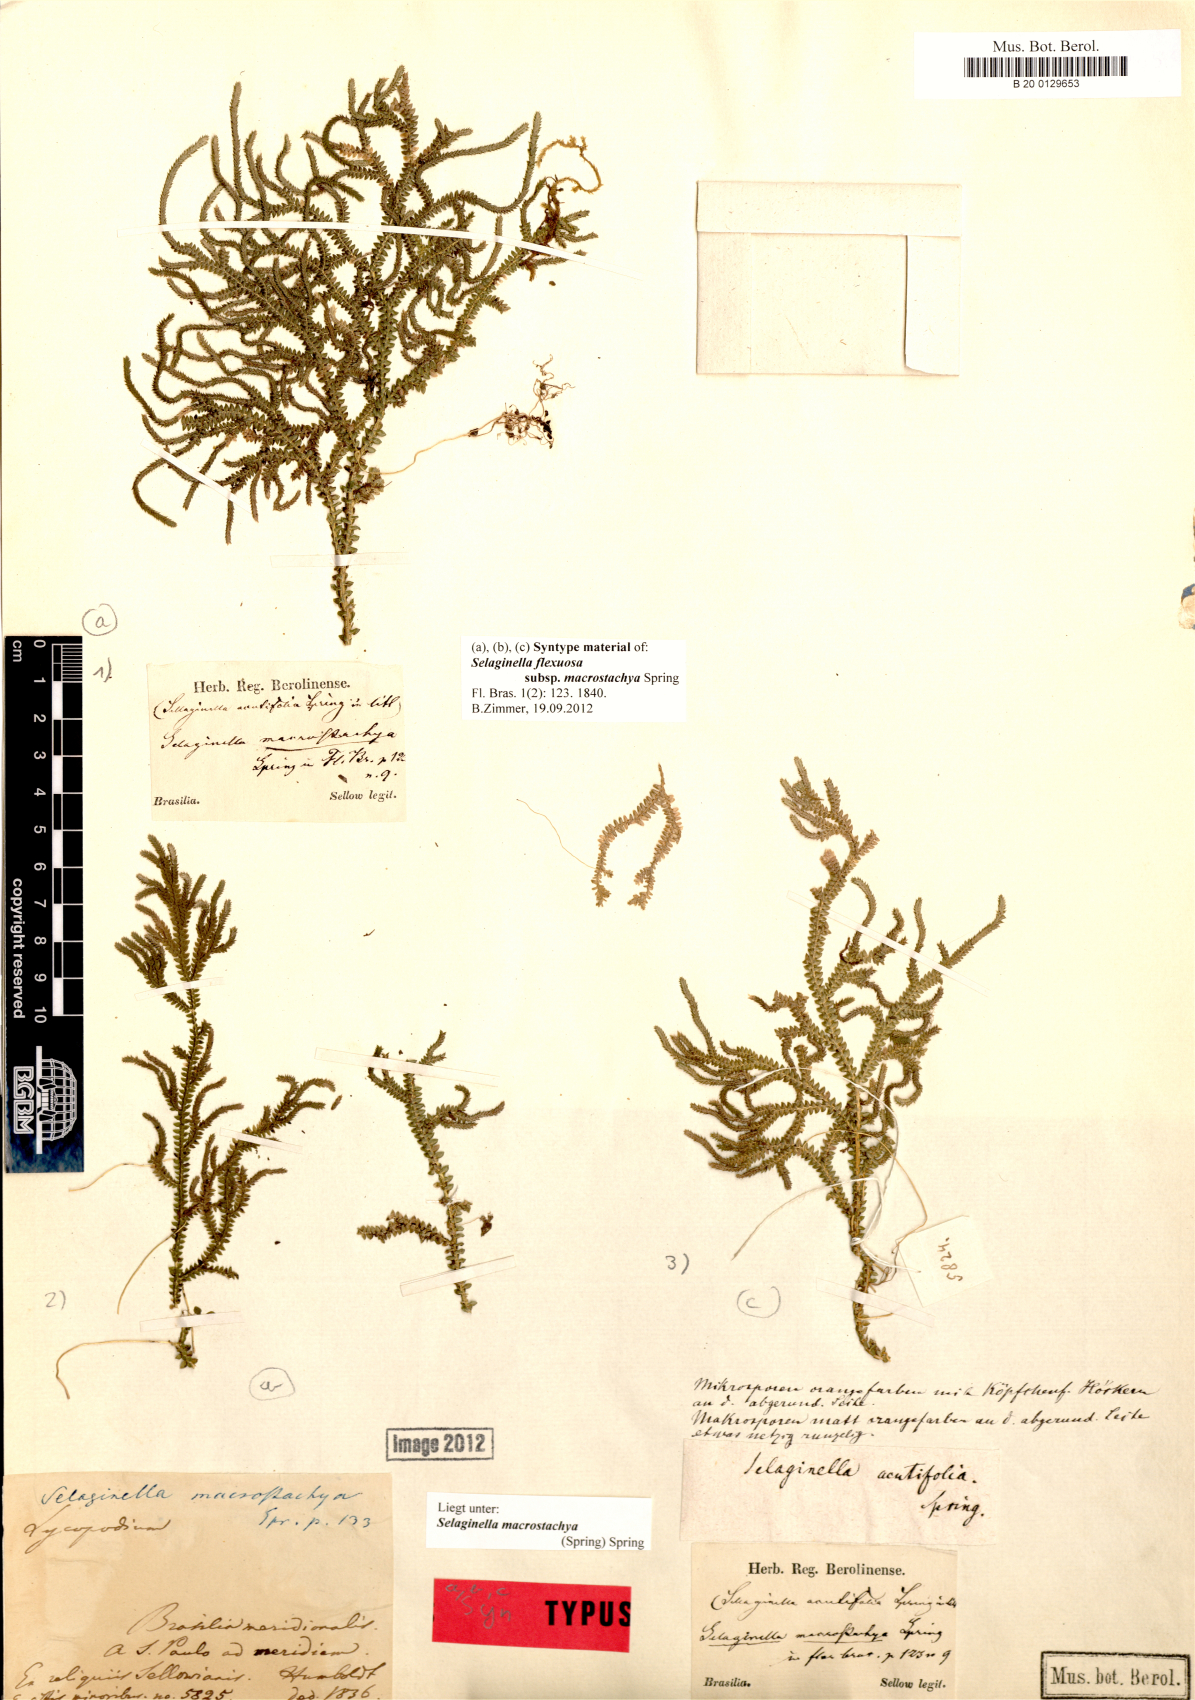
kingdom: Plantae
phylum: Tracheophyta
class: Lycopodiopsida
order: Selaginellales
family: Selaginellaceae
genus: Selaginella
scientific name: Selaginella macrostachya
